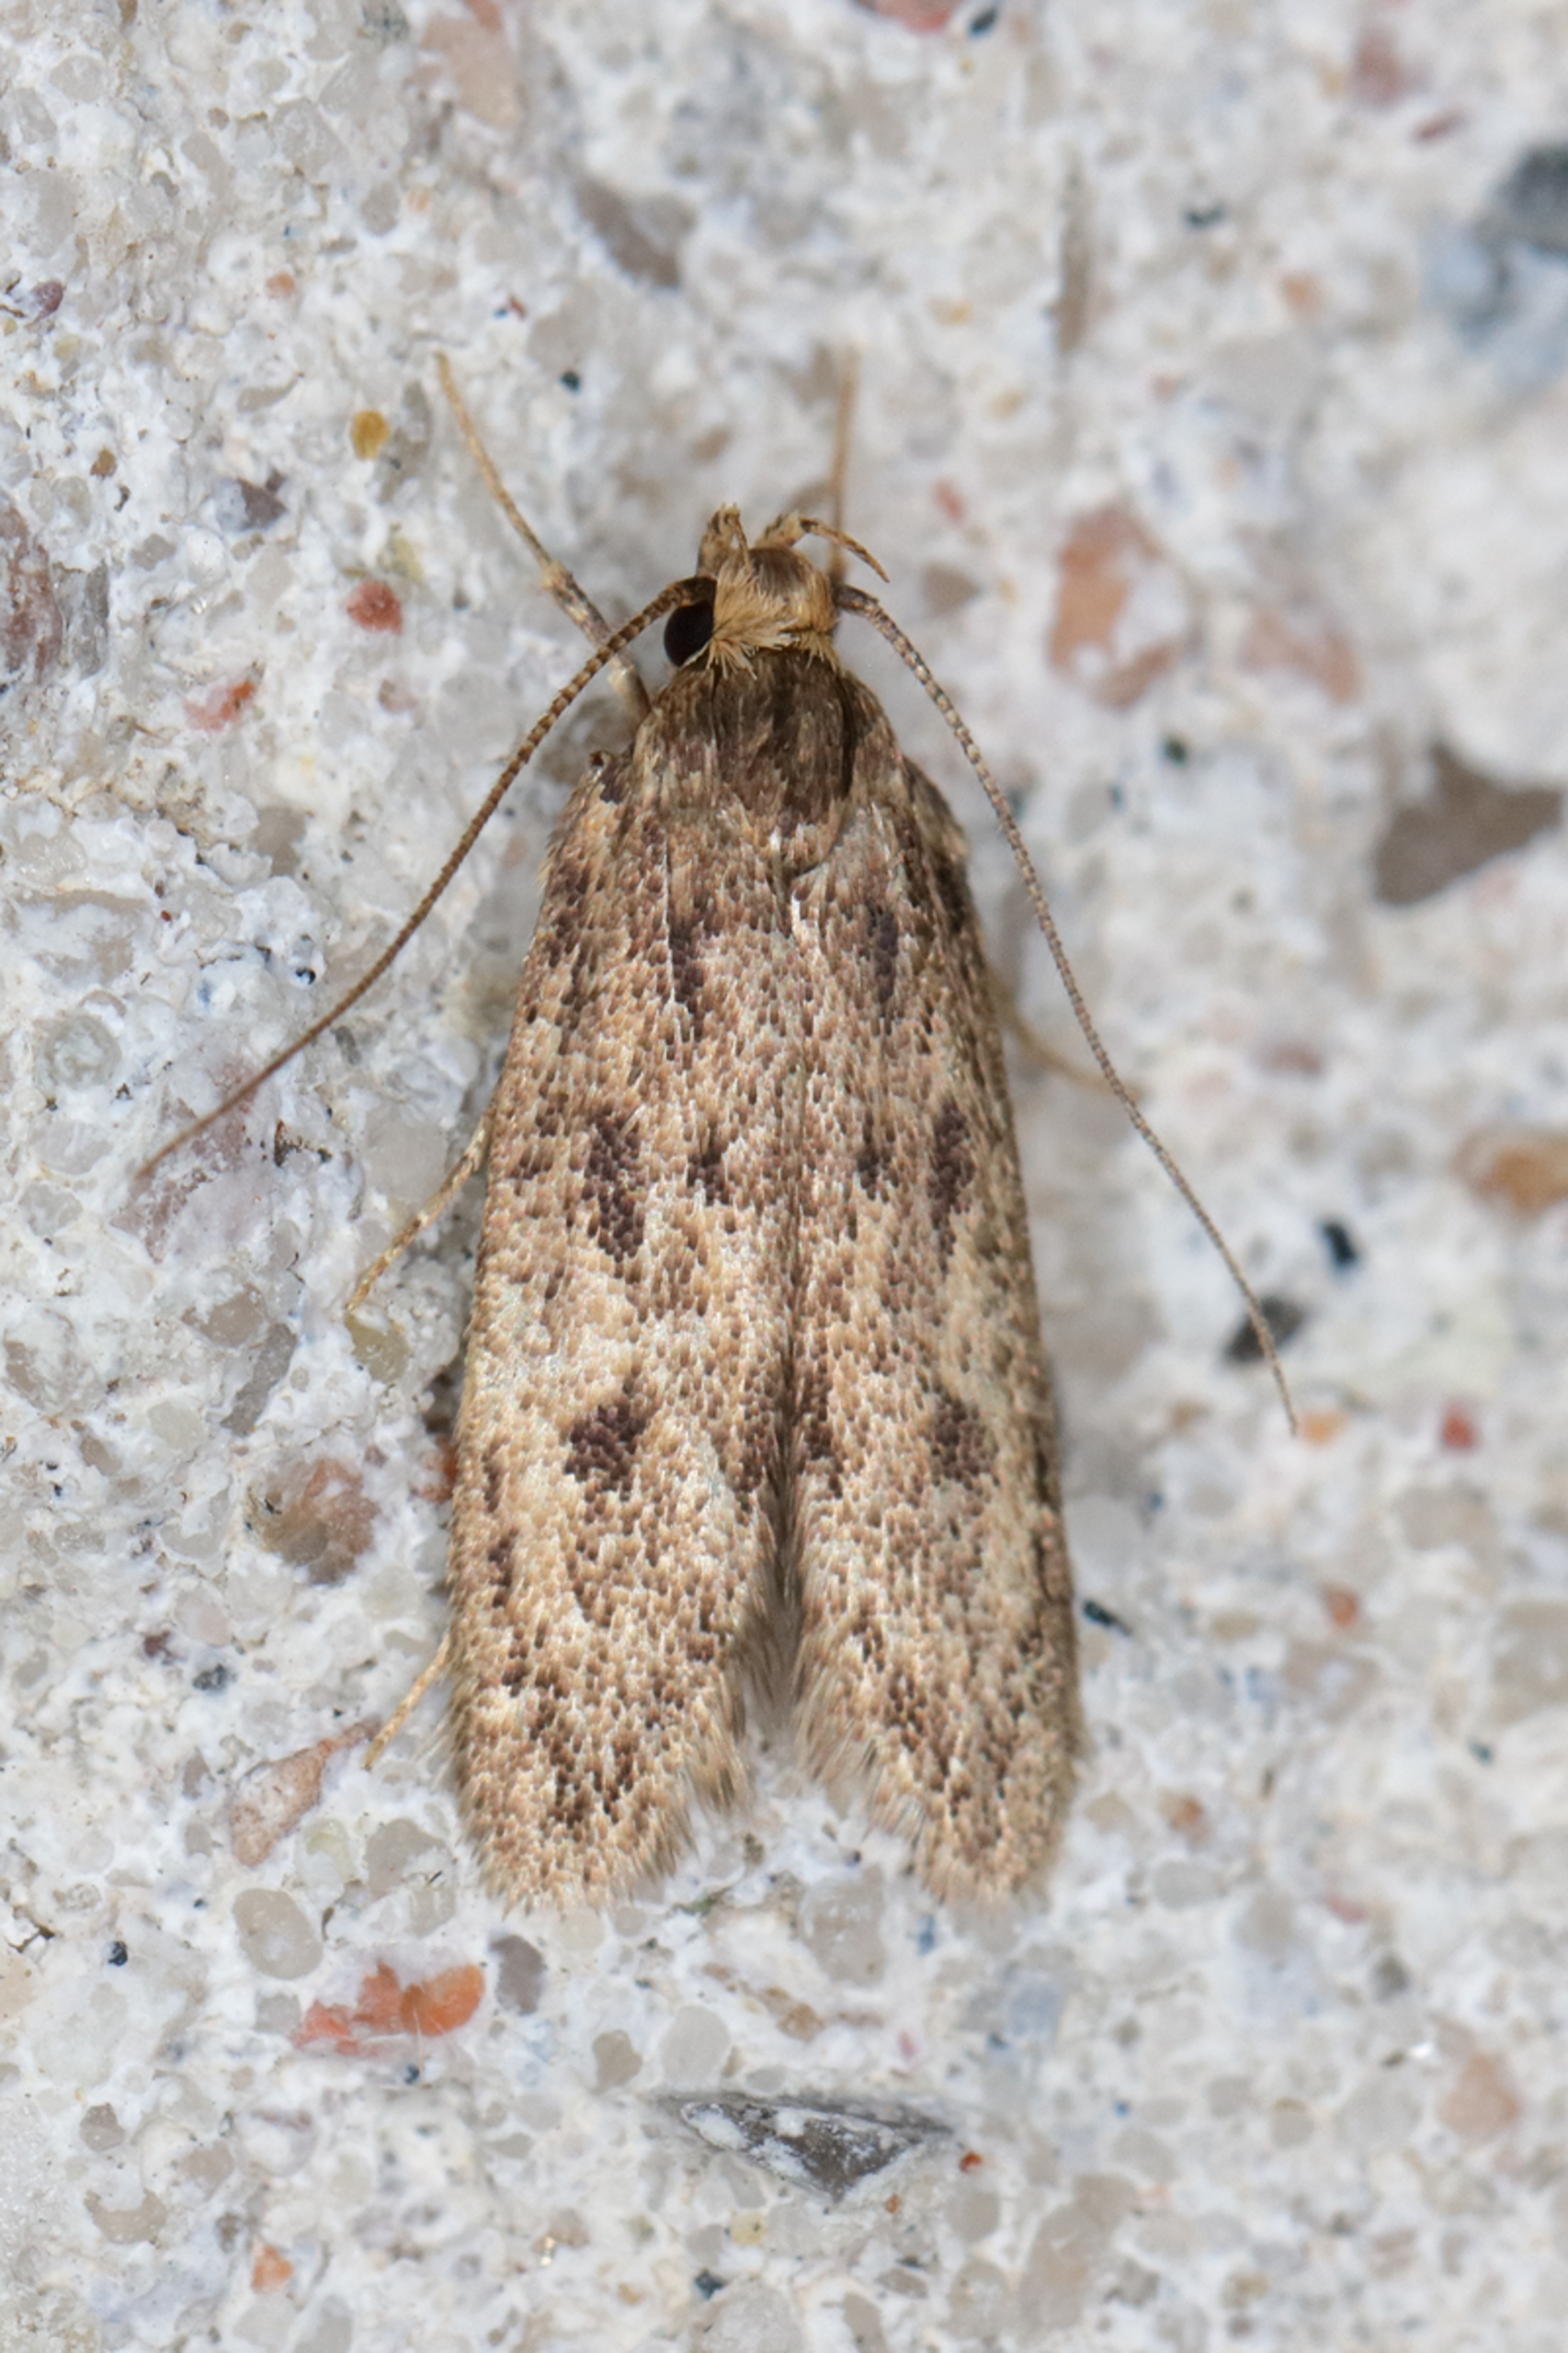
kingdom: Animalia
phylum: Arthropoda
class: Insecta
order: Lepidoptera
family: Oecophoridae
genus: Hofmannophila
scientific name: Hofmannophila pseudospretella
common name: Frømøl
